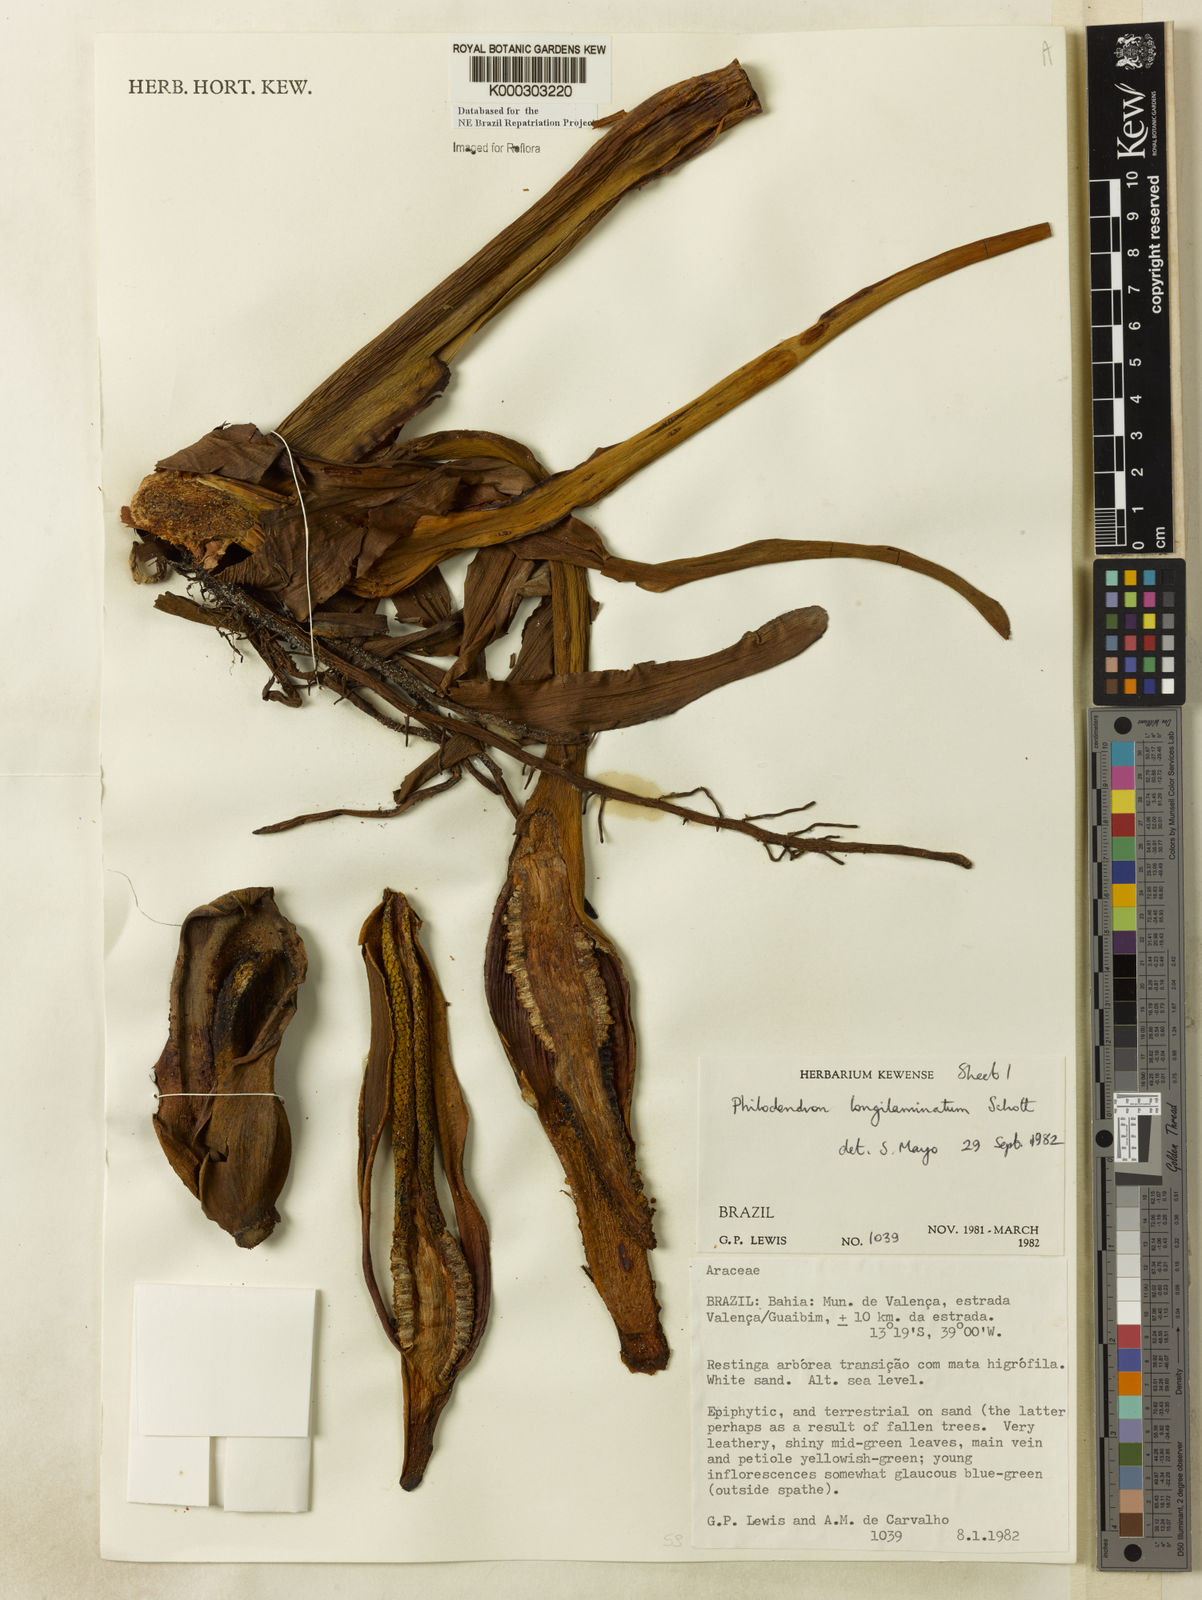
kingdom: Plantae
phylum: Tracheophyta
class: Liliopsida
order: Alismatales
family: Araceae
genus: Philodendron
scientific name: Philodendron longilaminatum
